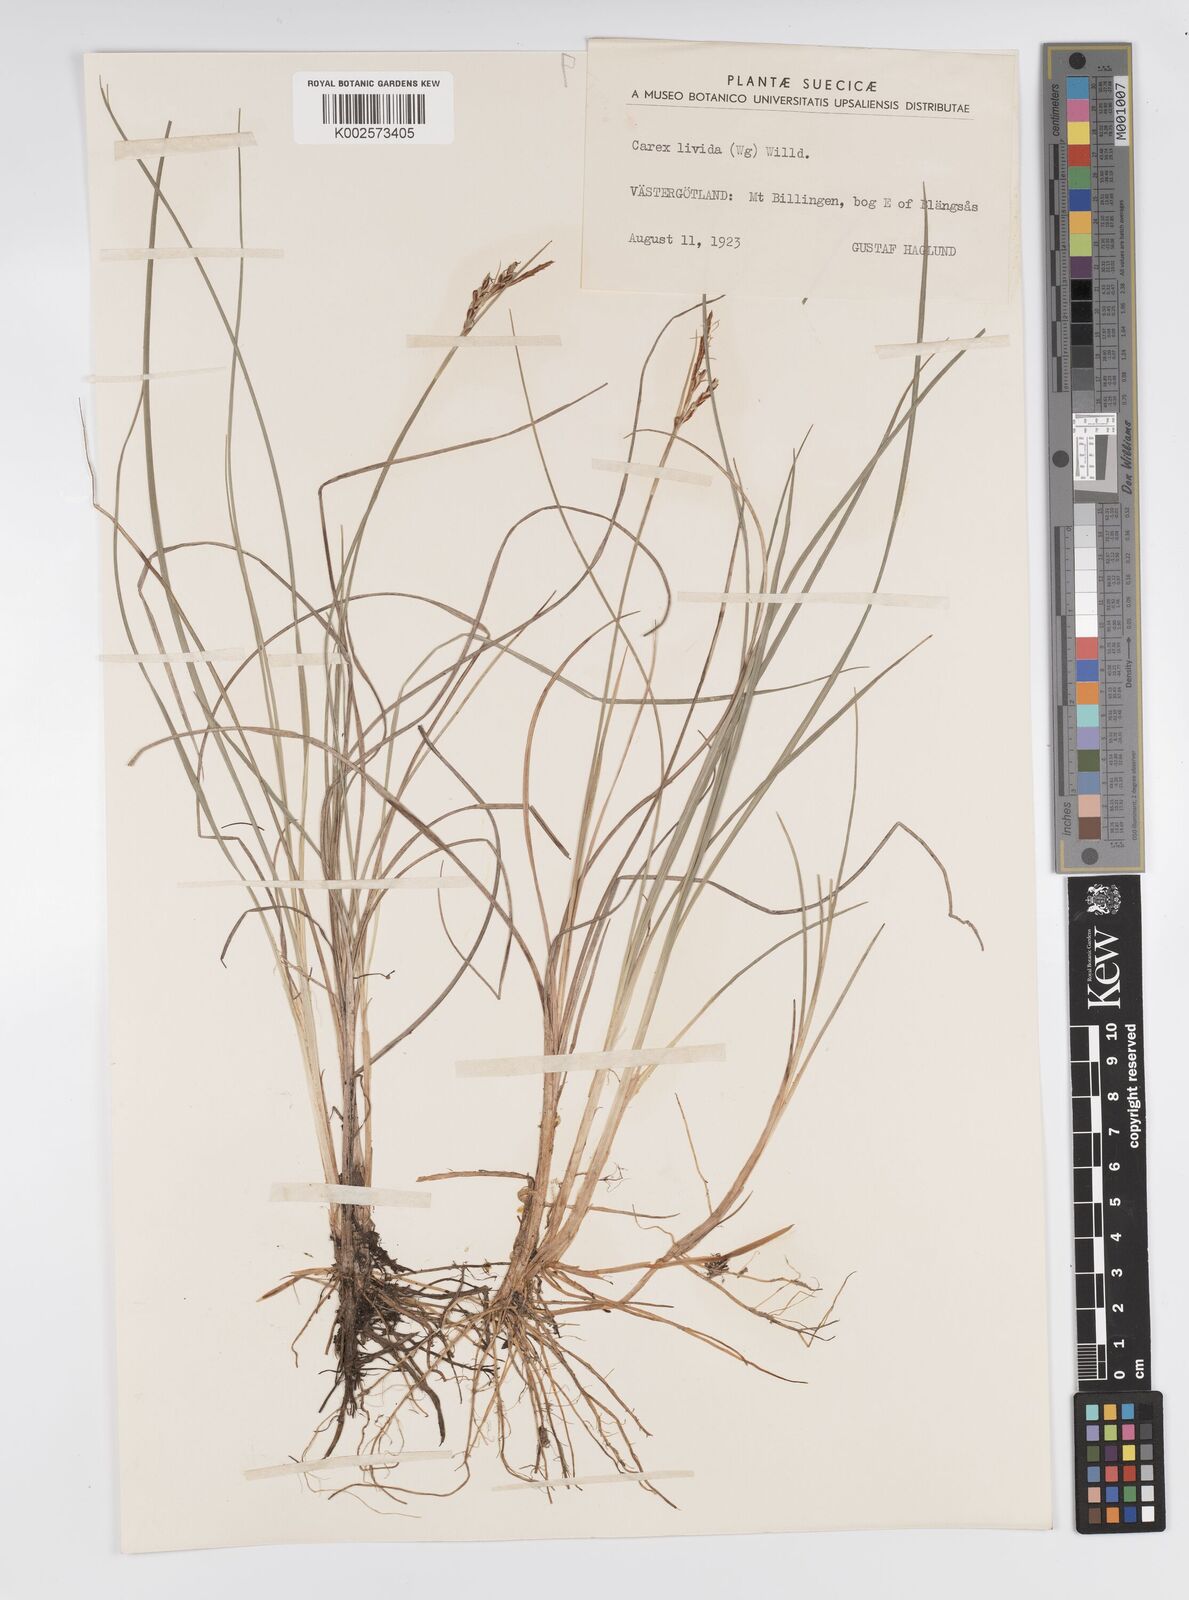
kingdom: Plantae
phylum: Tracheophyta
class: Liliopsida
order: Poales
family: Cyperaceae
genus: Carex
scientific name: Carex livida
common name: Livid sedge
